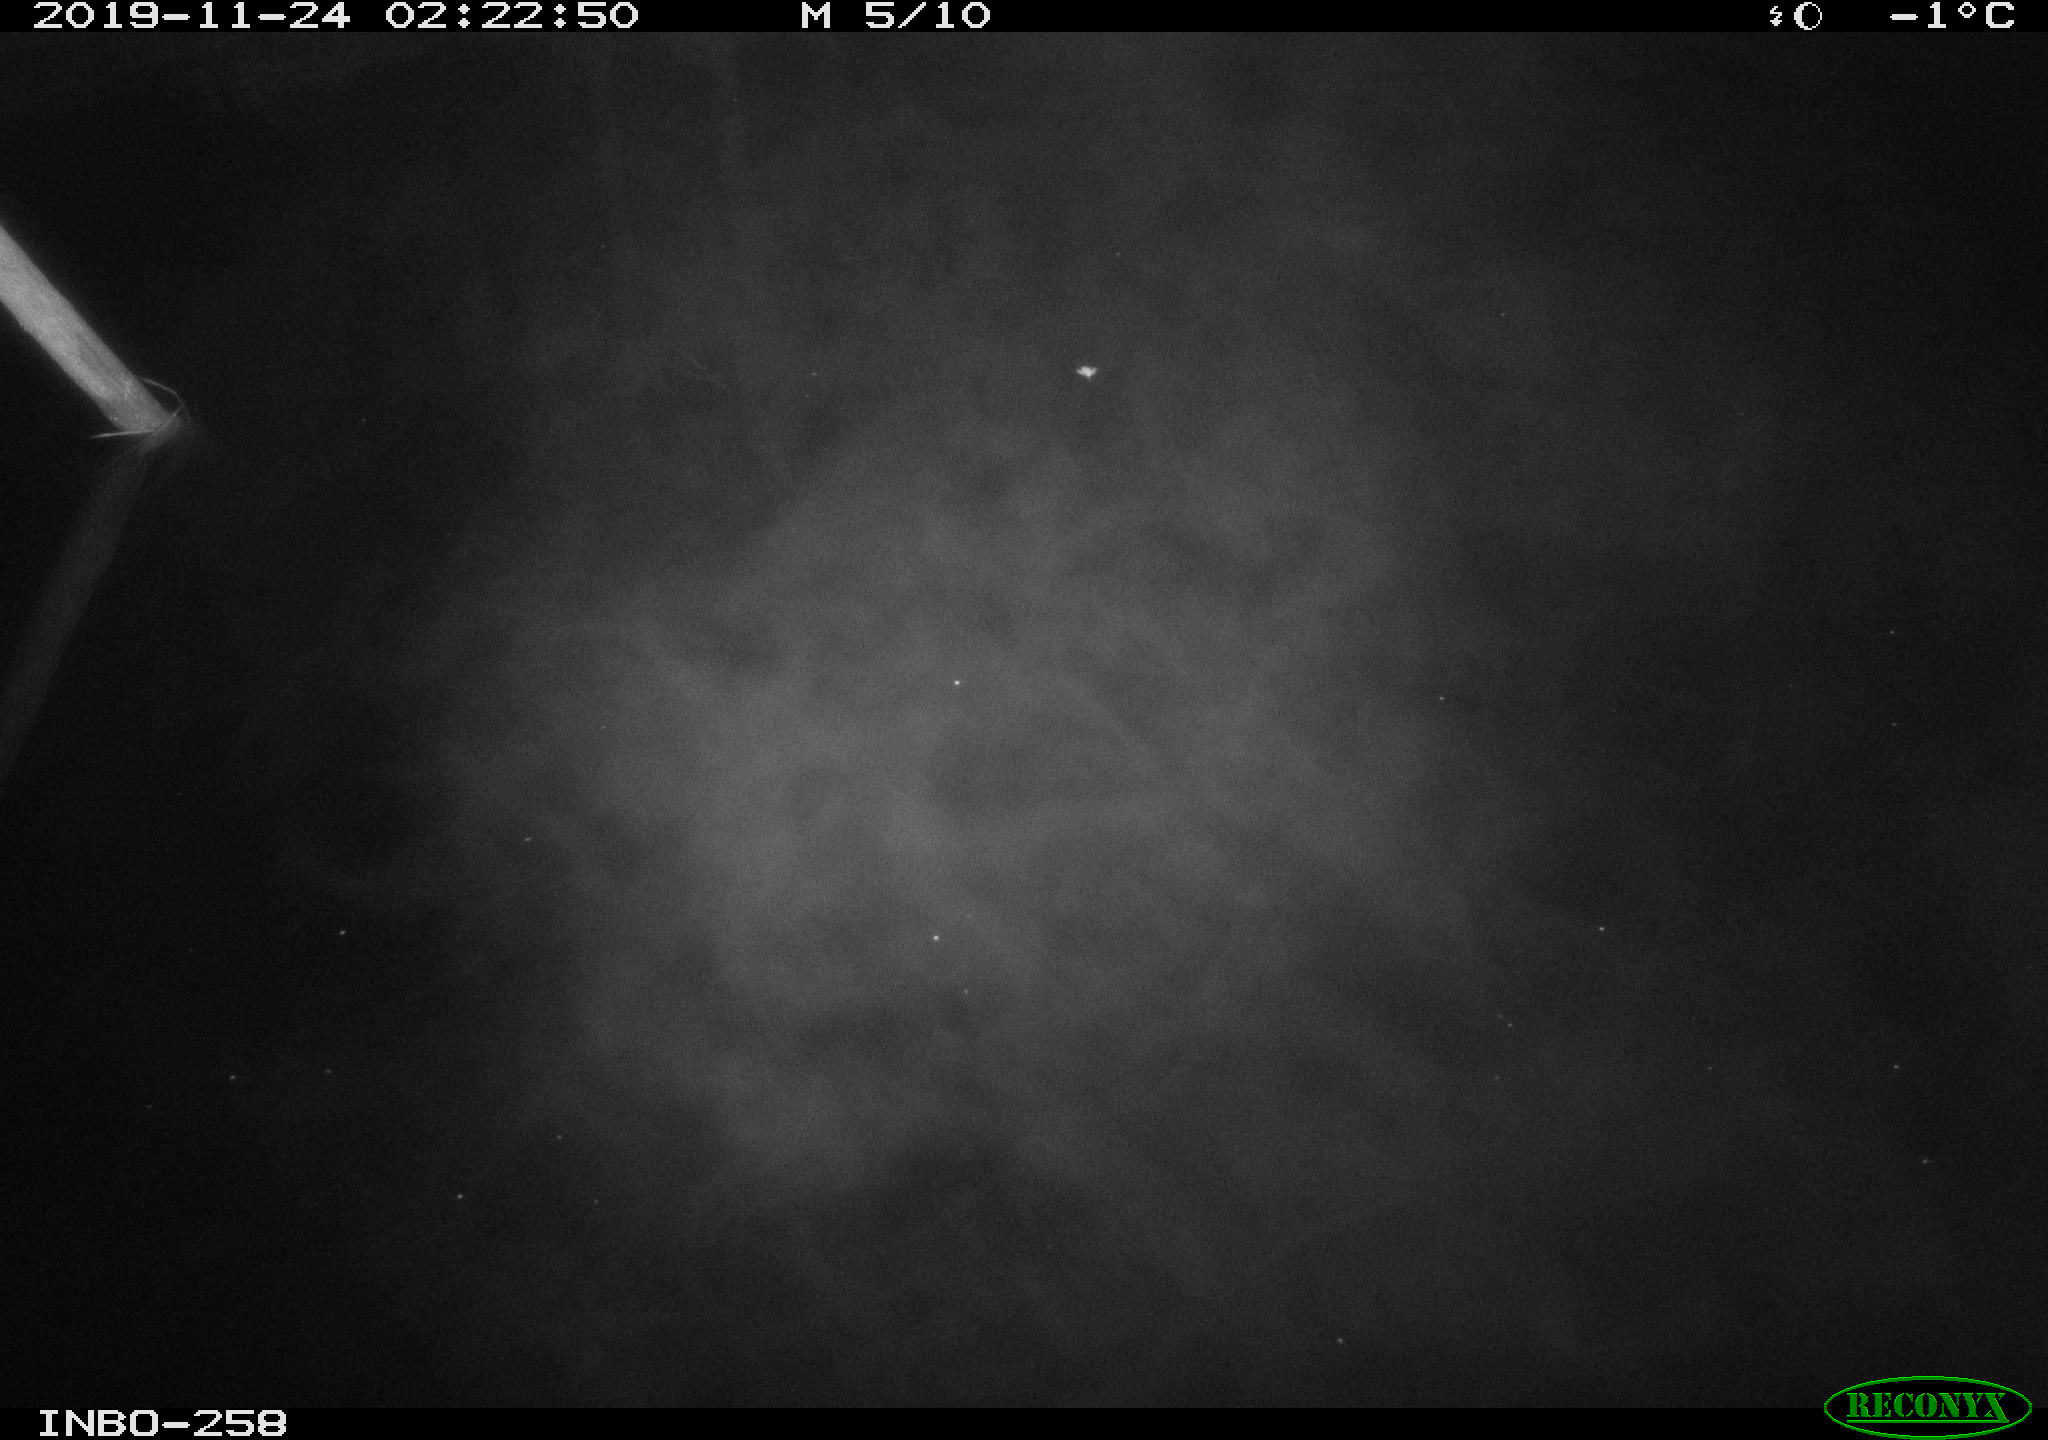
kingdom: Animalia
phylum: Chordata
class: Aves
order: Anseriformes
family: Anatidae
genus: Anas
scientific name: Anas platyrhynchos
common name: Mallard
